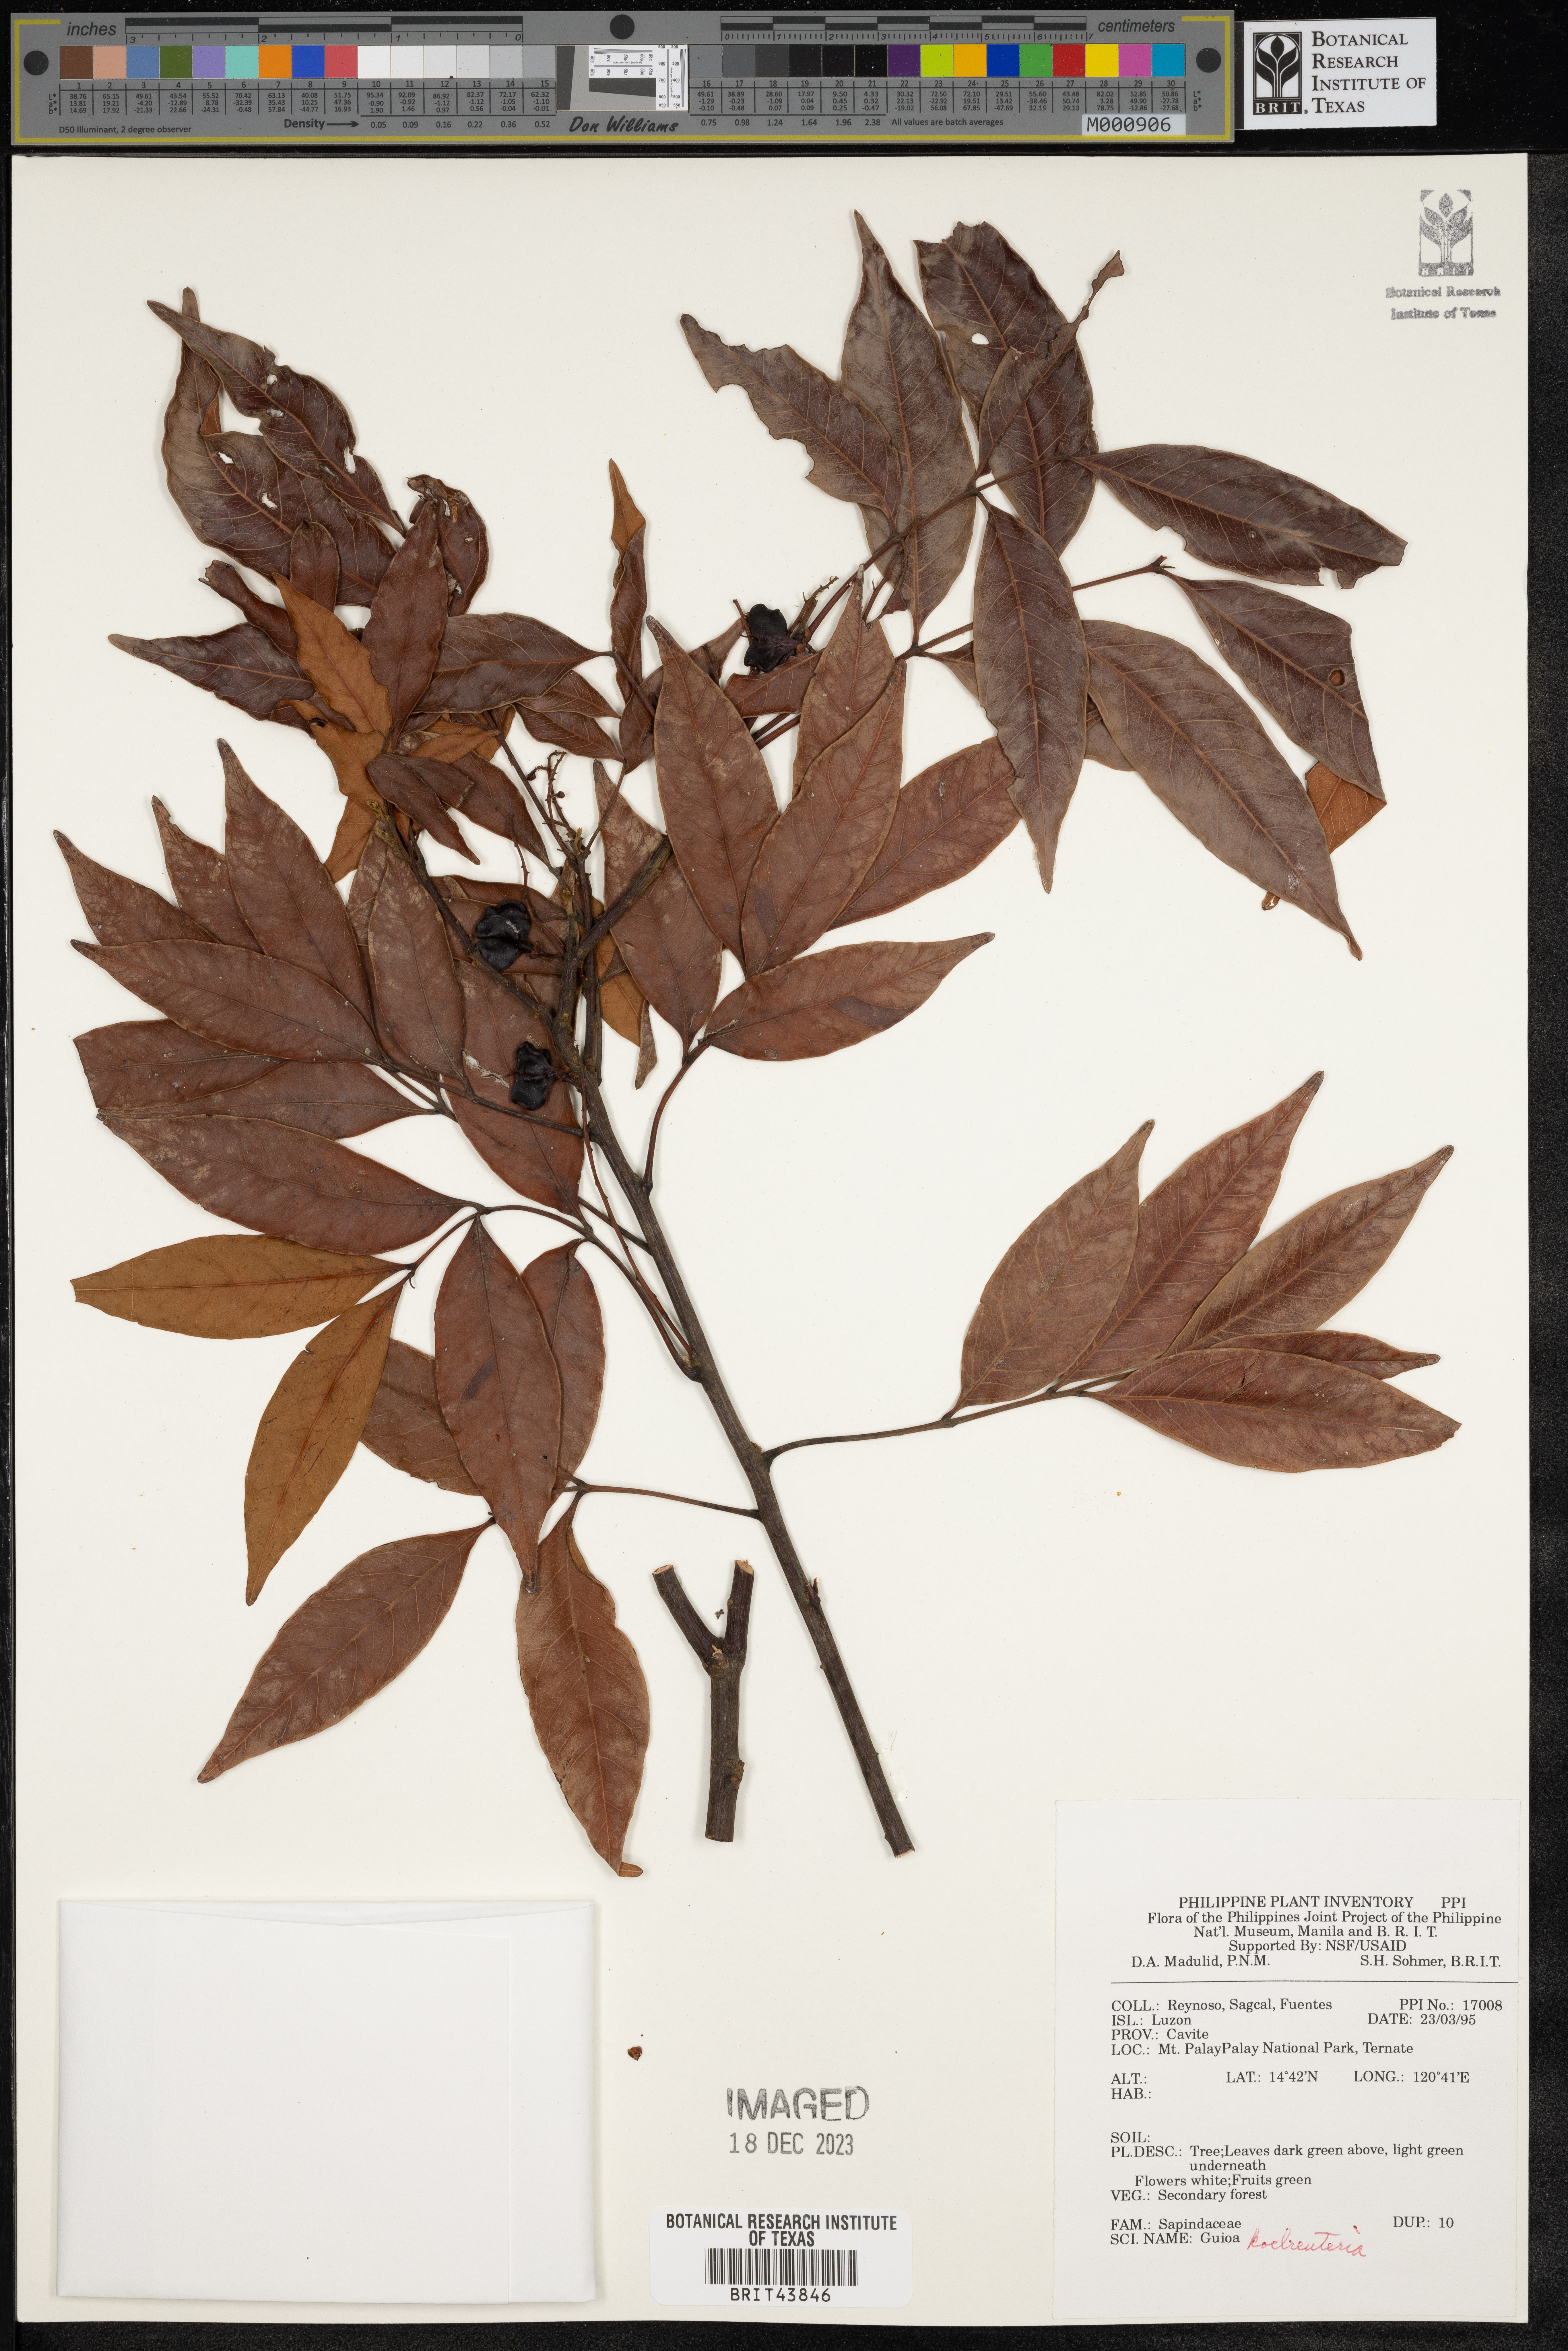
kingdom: Plantae
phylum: Tracheophyta
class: Magnoliopsida
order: Sapindales
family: Sapindaceae
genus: Guioa
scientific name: Guioa koelreuteria
